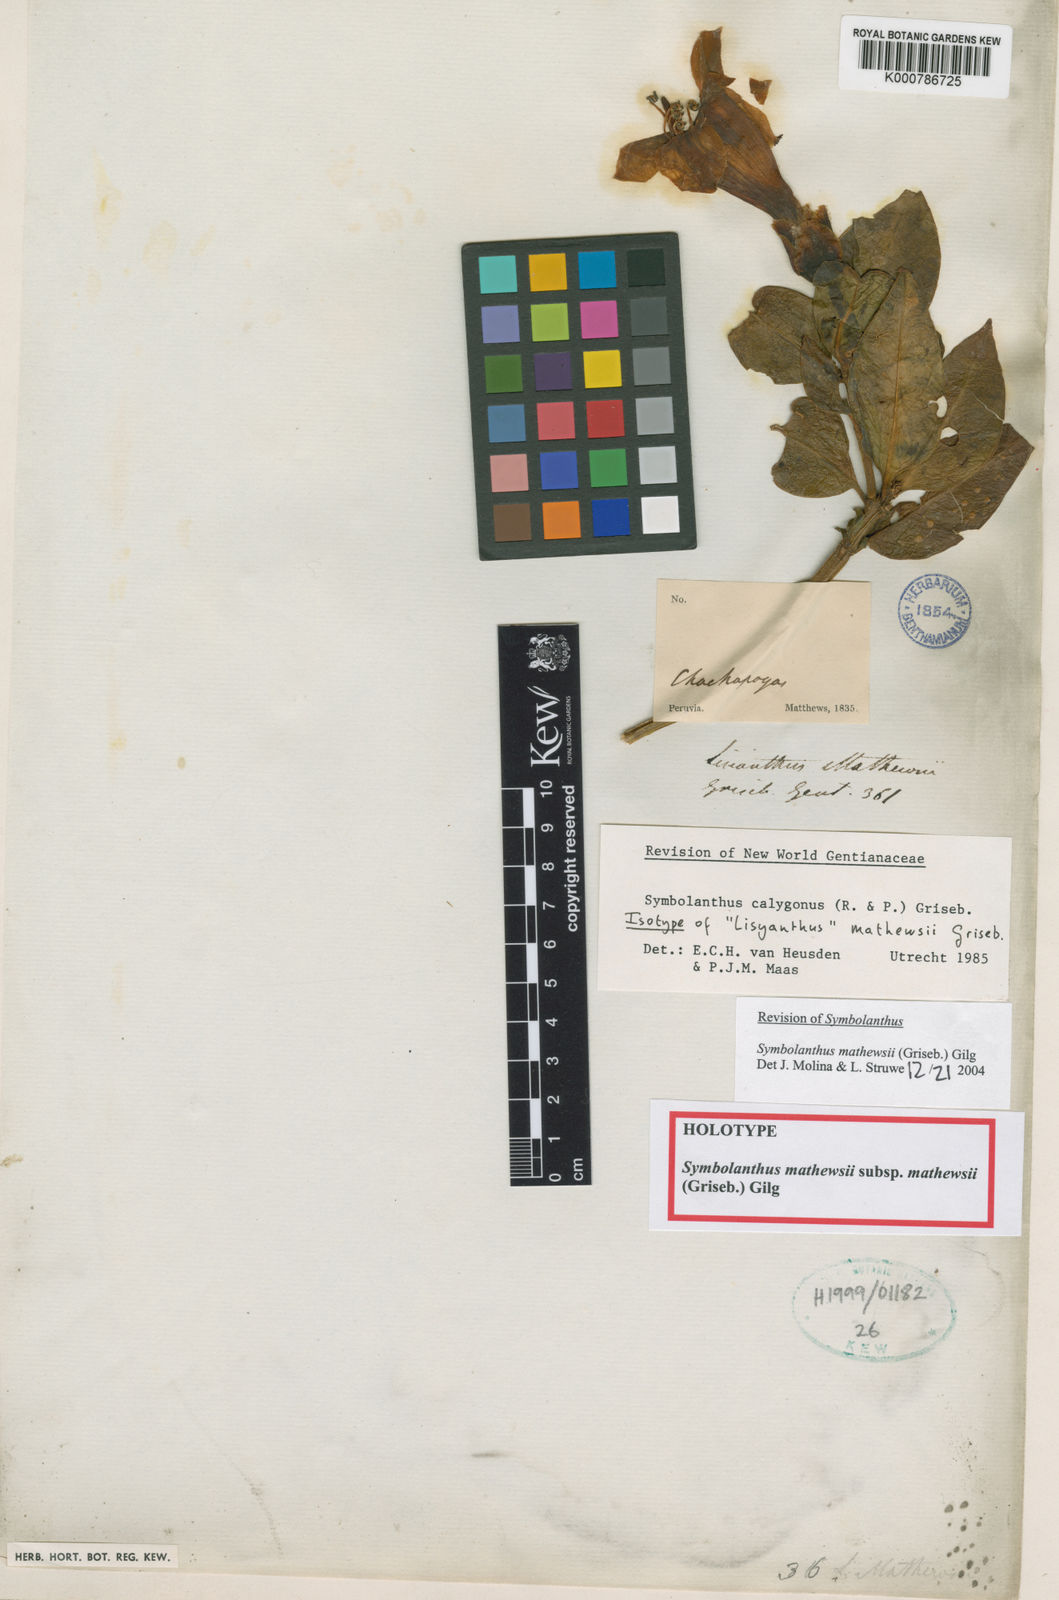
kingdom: Plantae
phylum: Tracheophyta
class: Magnoliopsida
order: Gentianales
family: Gentianaceae
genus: Symbolanthus
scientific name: Symbolanthus
